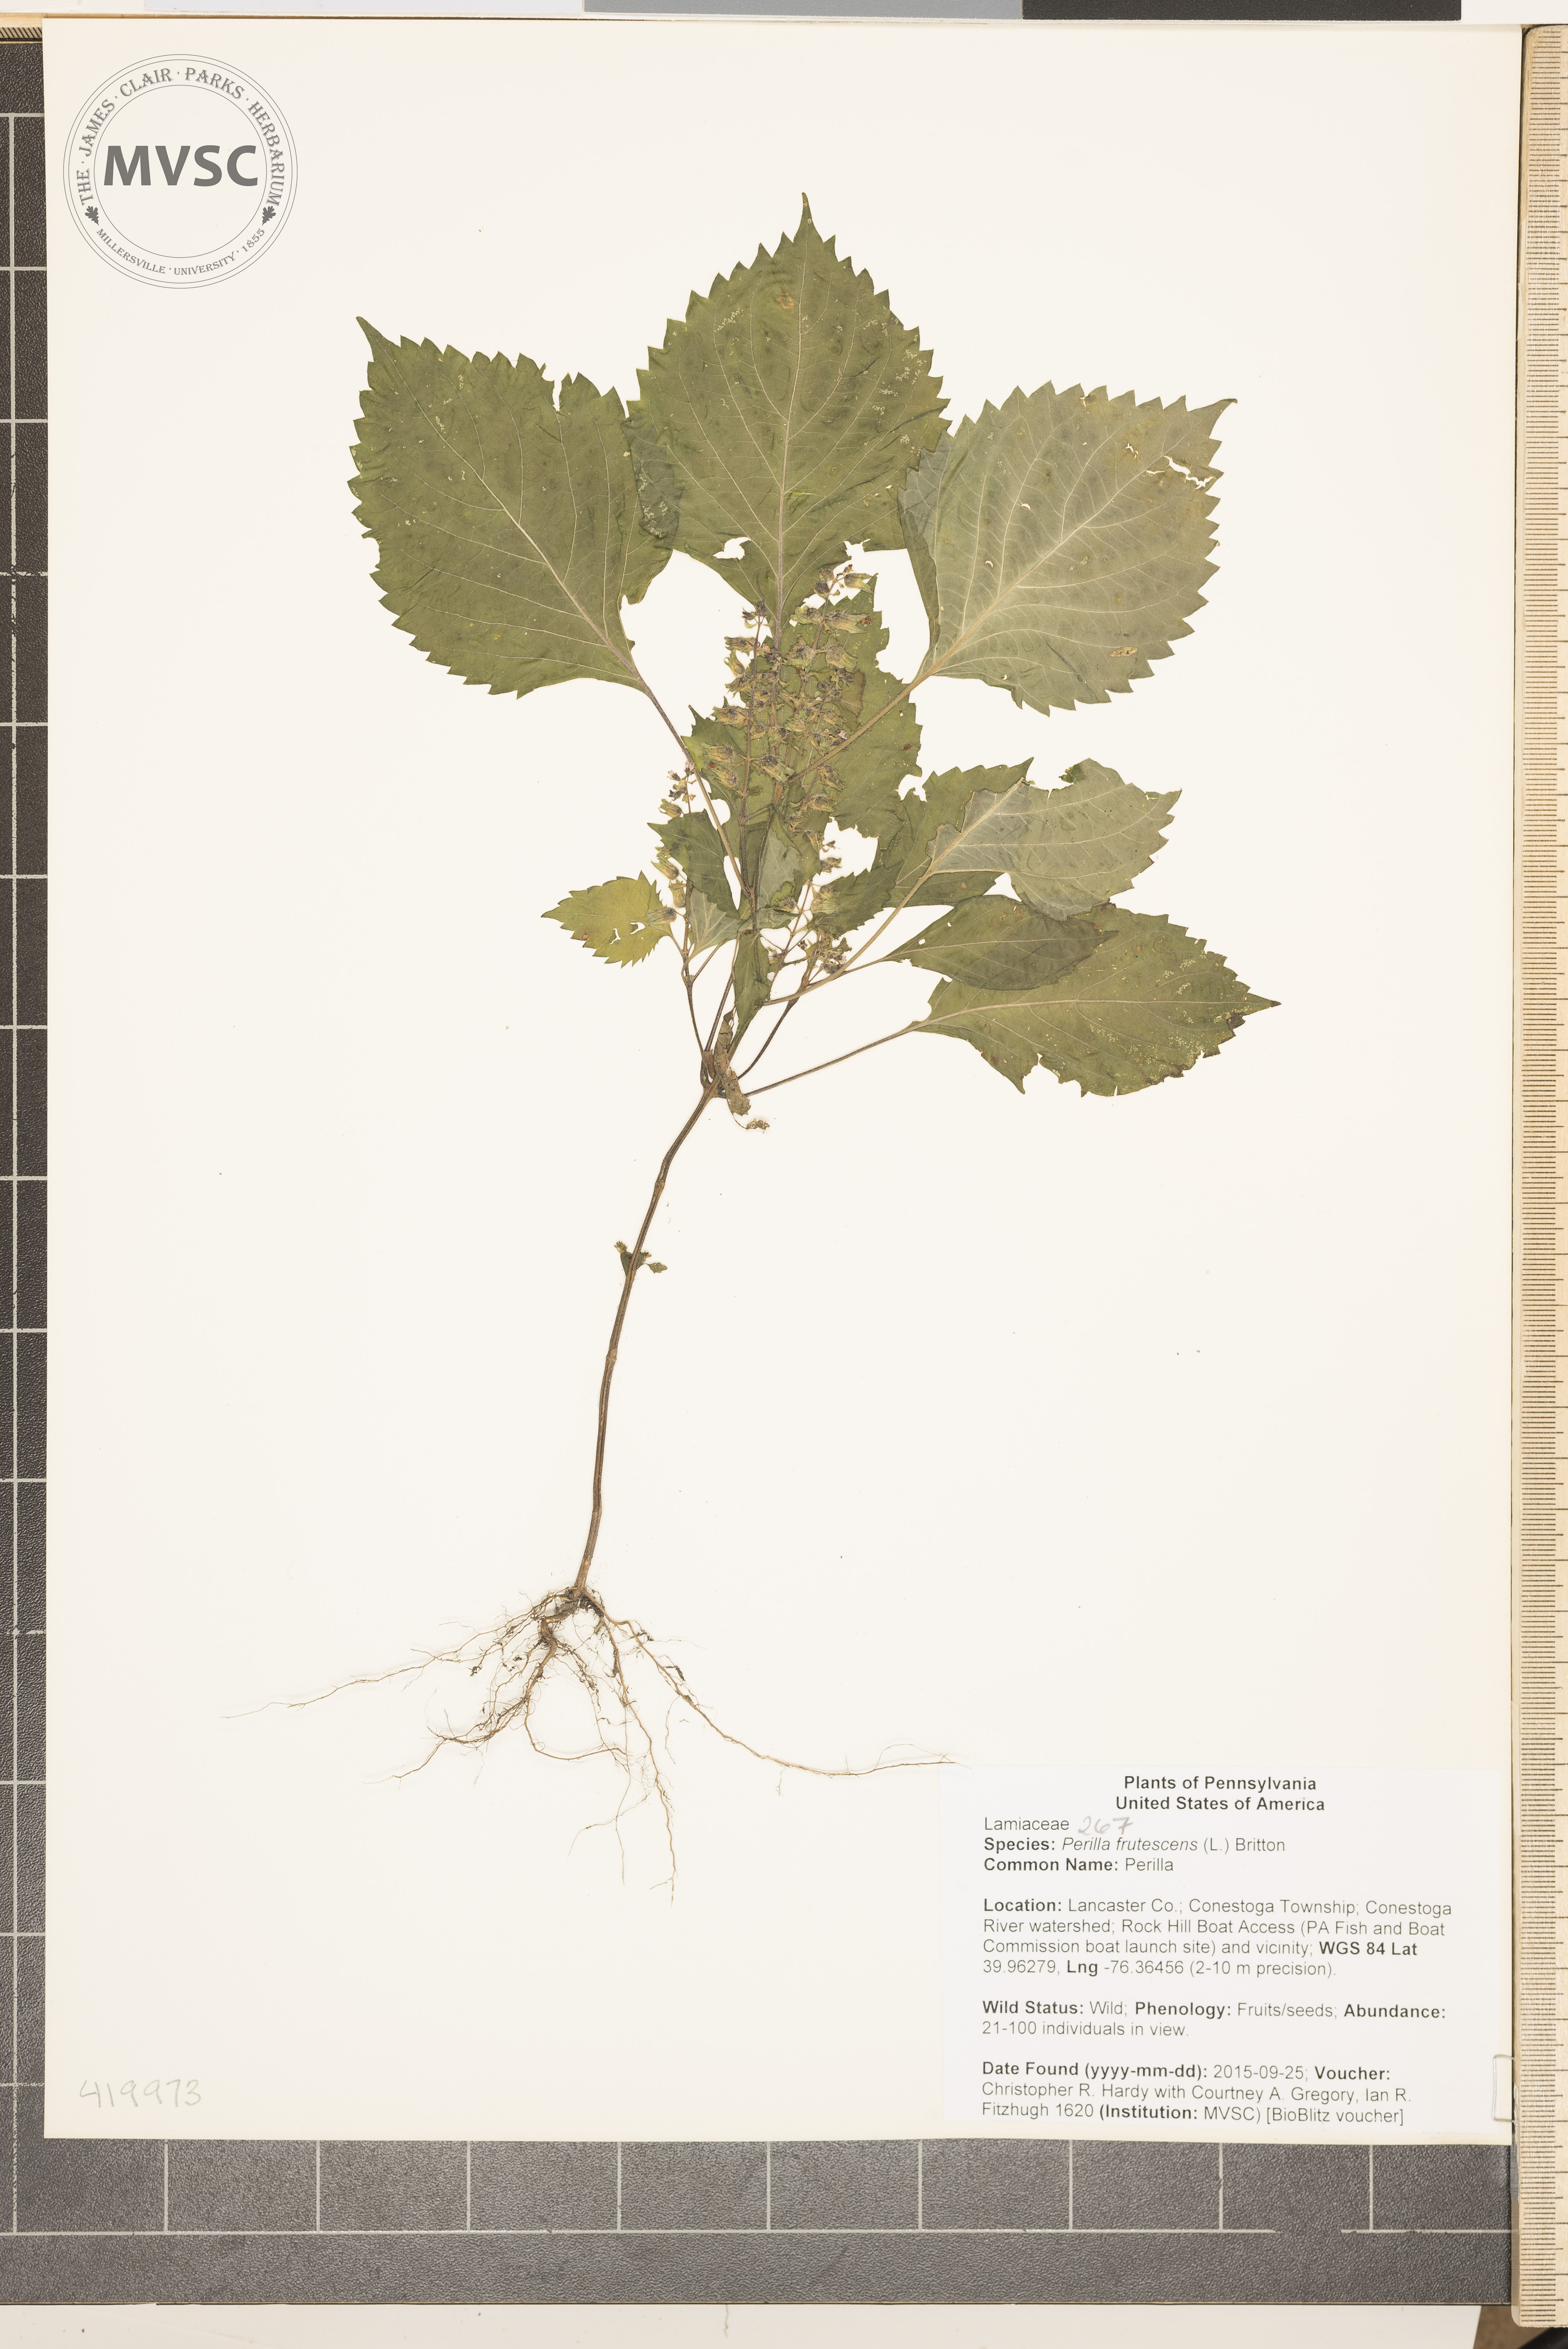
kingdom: Plantae
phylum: Tracheophyta
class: Magnoliopsida
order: Lamiales
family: Lamiaceae
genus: Perilla
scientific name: Perilla frutescens
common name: Perilla
